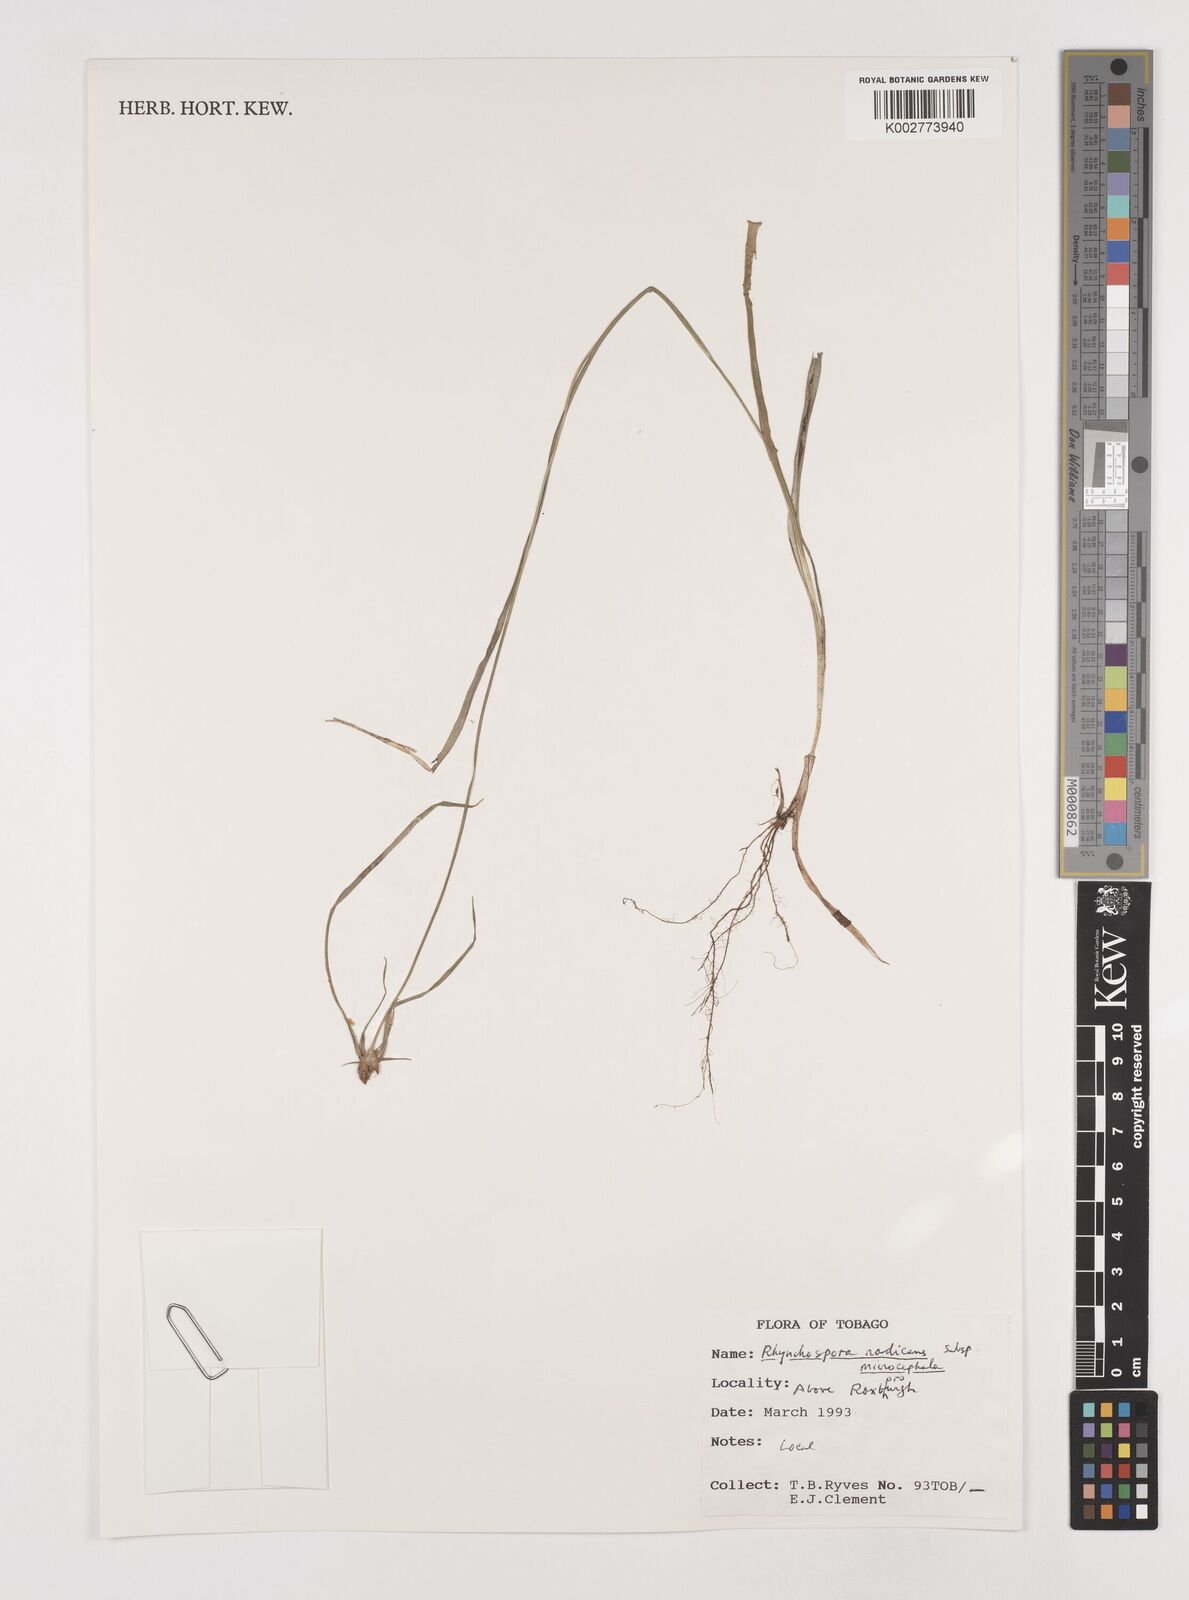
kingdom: Plantae
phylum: Tracheophyta
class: Liliopsida
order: Poales
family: Cyperaceae
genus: Rhynchospora
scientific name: Rhynchospora radicans
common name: Tropical whitetop
